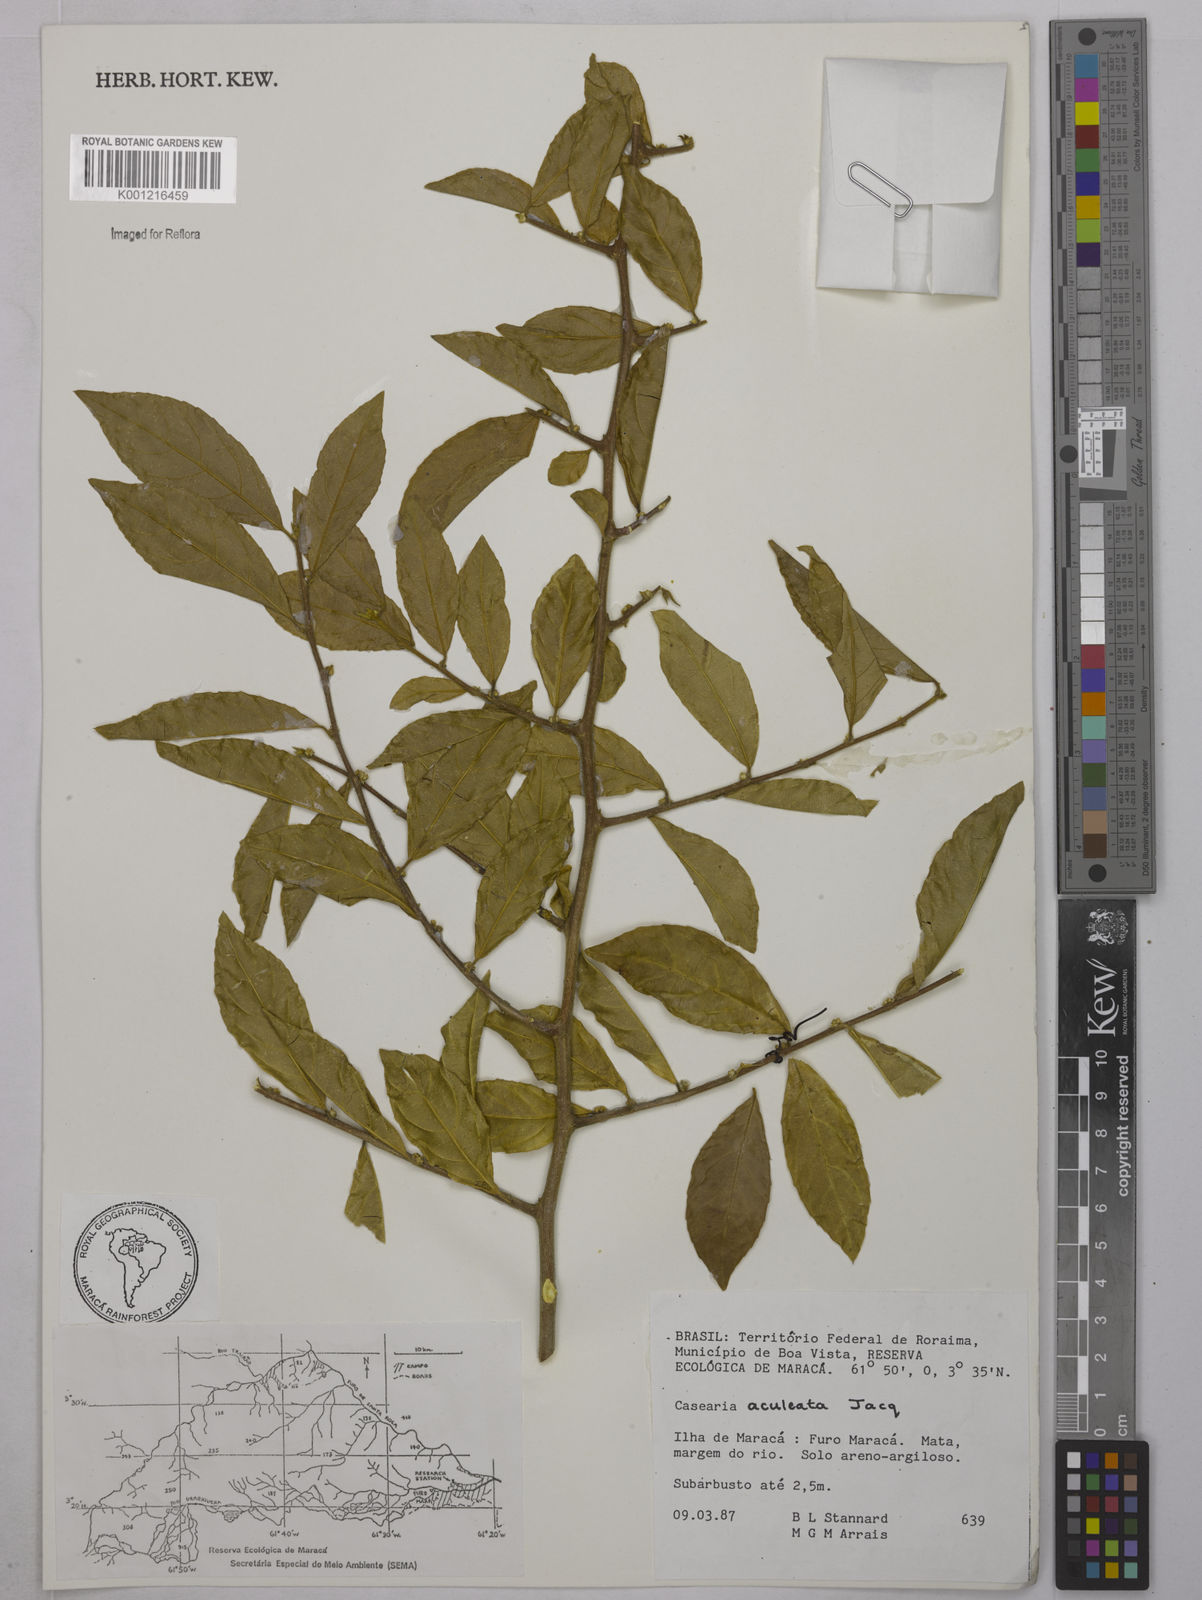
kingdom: Plantae
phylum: Tracheophyta
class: Magnoliopsida
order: Malpighiales
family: Salicaceae
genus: Casearia
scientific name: Casearia aculeata
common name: Cockspur
